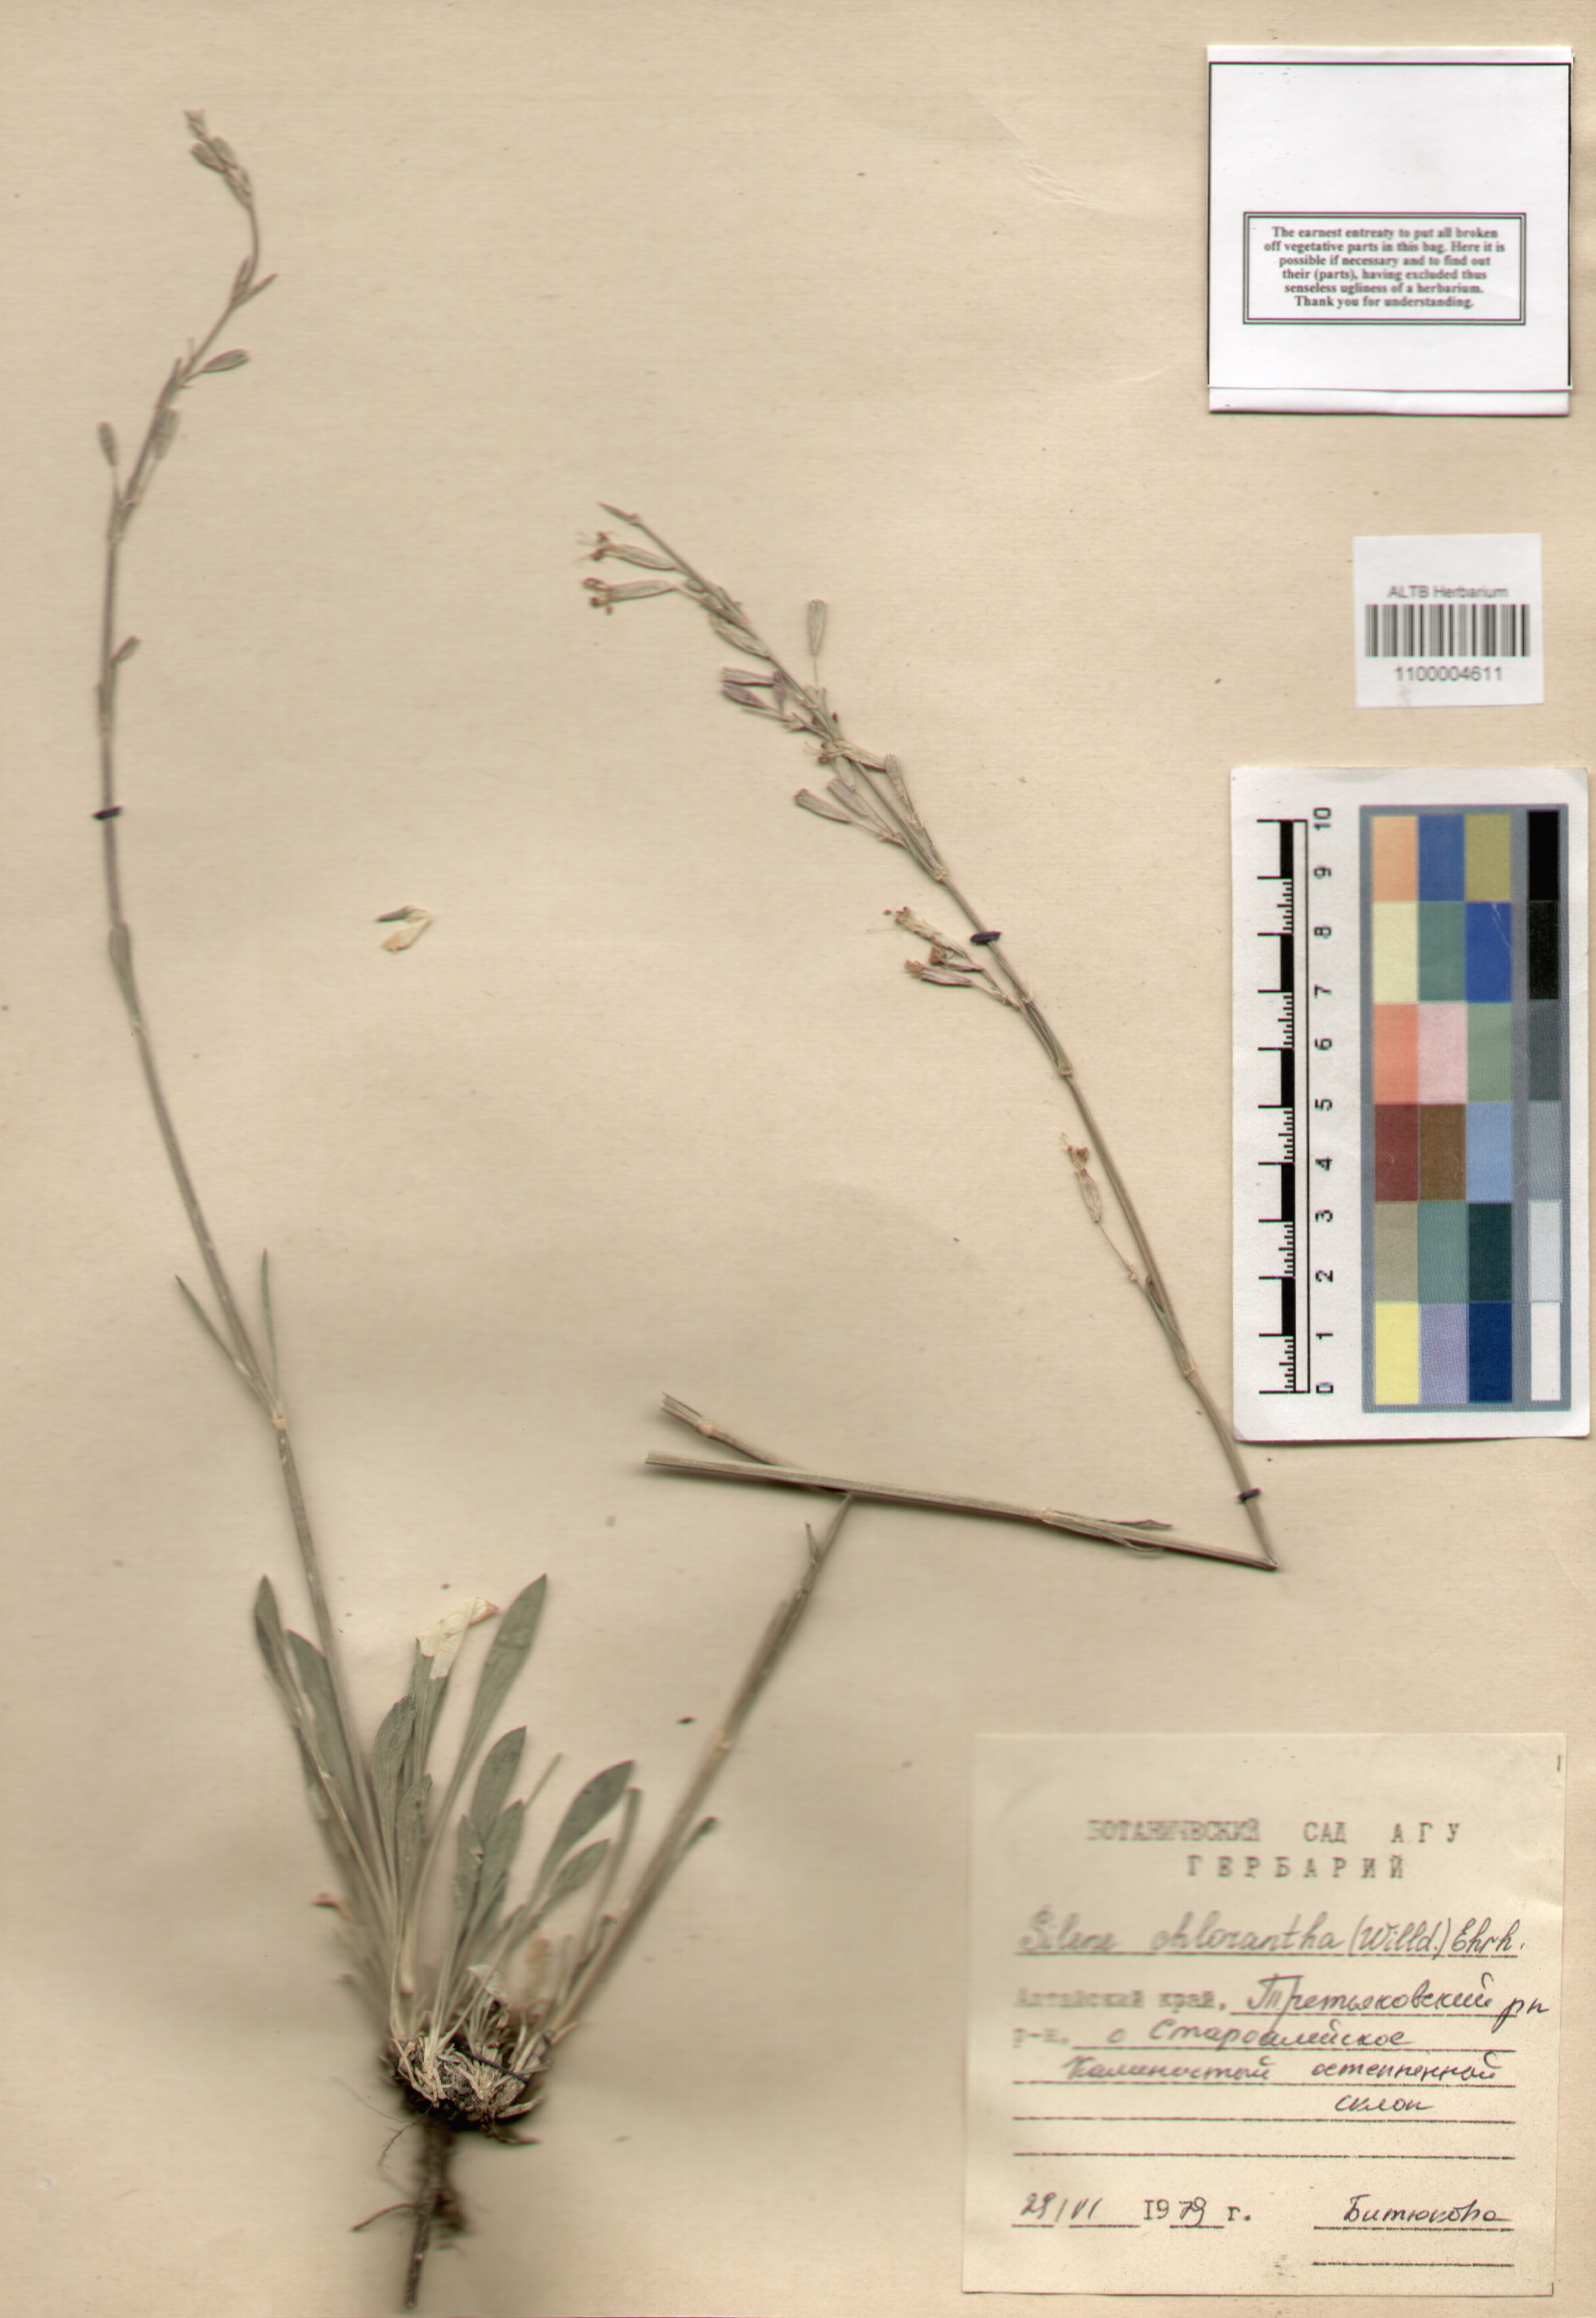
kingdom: Plantae
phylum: Tracheophyta
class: Magnoliopsida
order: Caryophyllales
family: Caryophyllaceae
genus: Silene
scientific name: Silene chlorantha
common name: Yellowgreen catchfly
